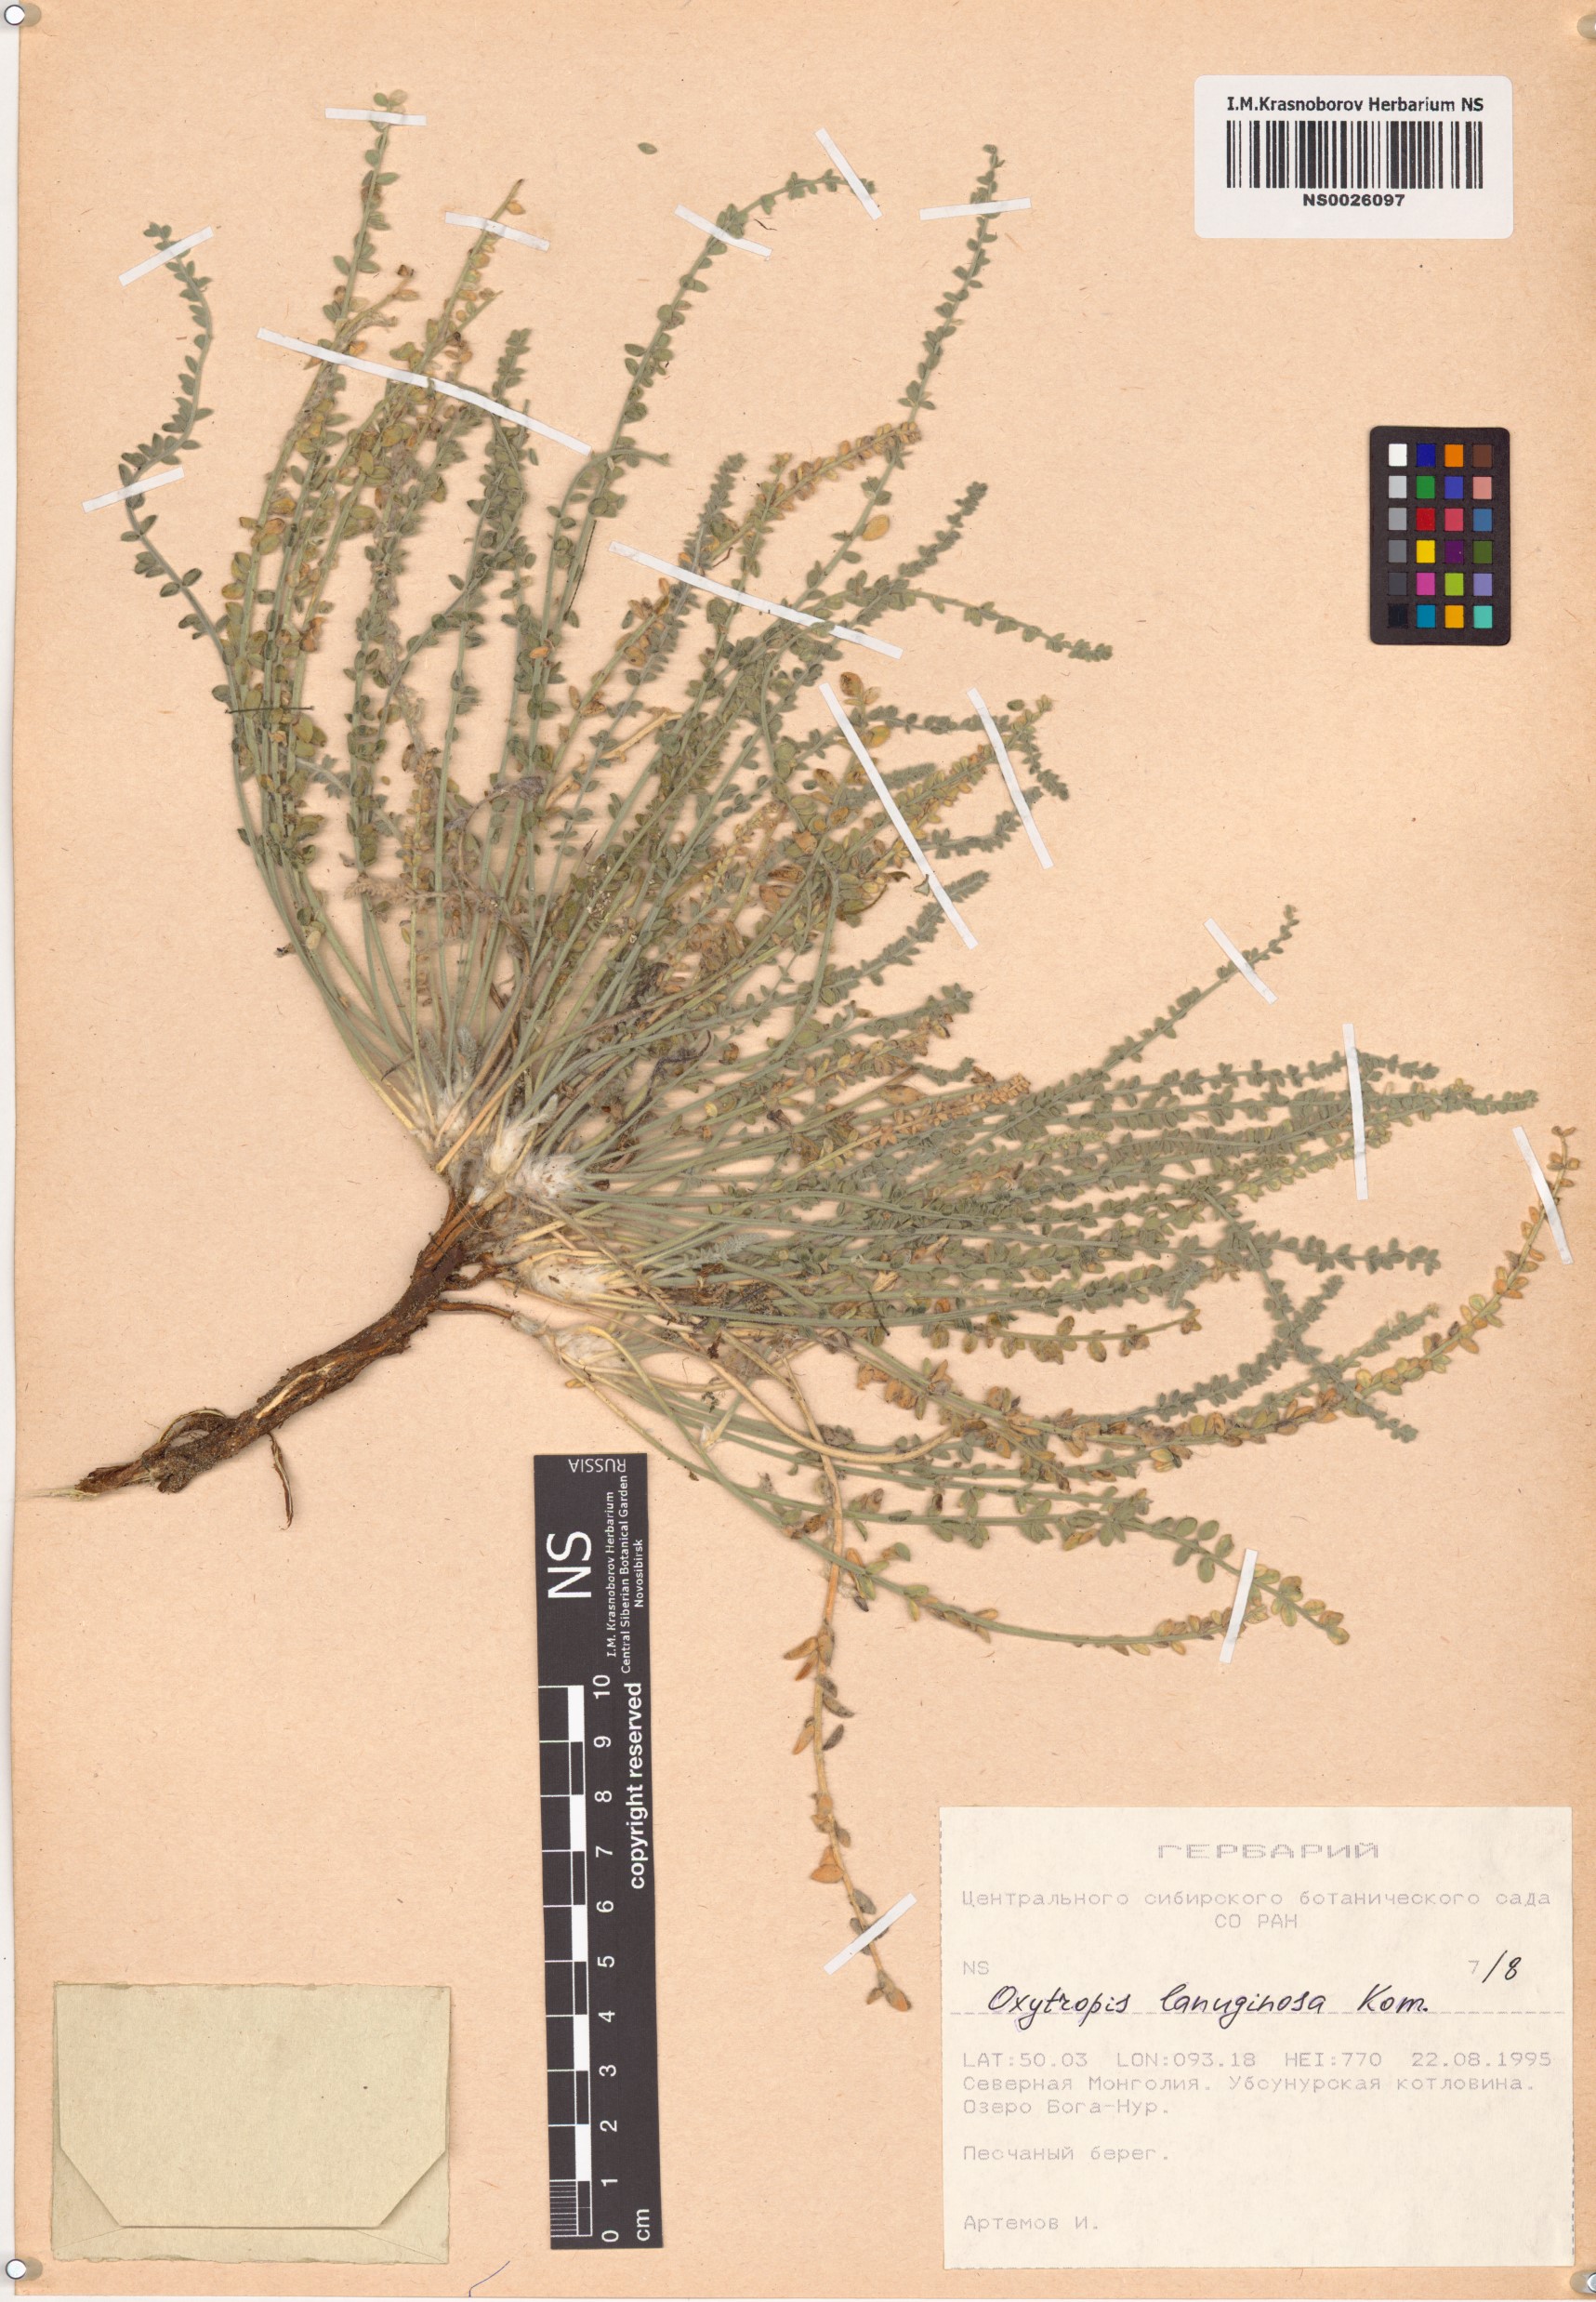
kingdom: Plantae
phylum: Tracheophyta
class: Magnoliopsida
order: Fabales
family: Fabaceae
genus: Oxytropis
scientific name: Oxytropis lanuginosa
